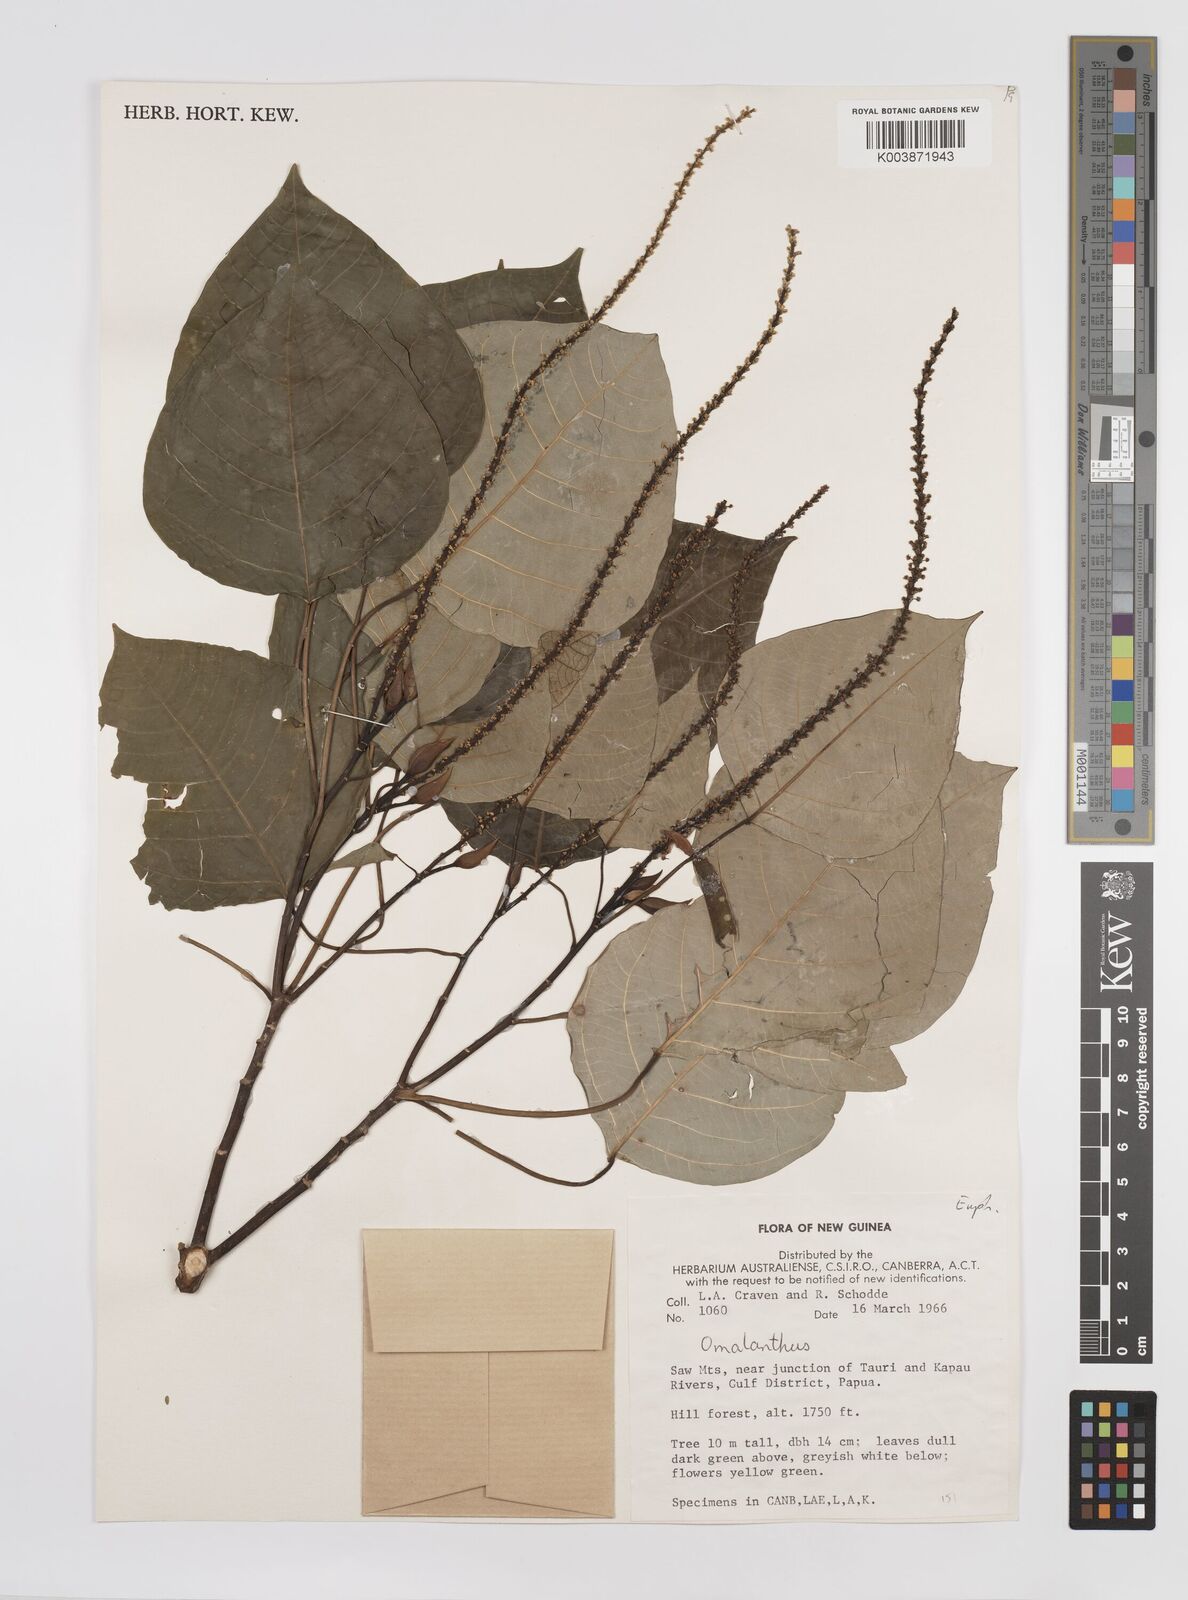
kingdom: Plantae
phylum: Tracheophyta
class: Magnoliopsida
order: Malpighiales
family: Euphorbiaceae
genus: Homalanthus
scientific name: Homalanthus novoguineensis
